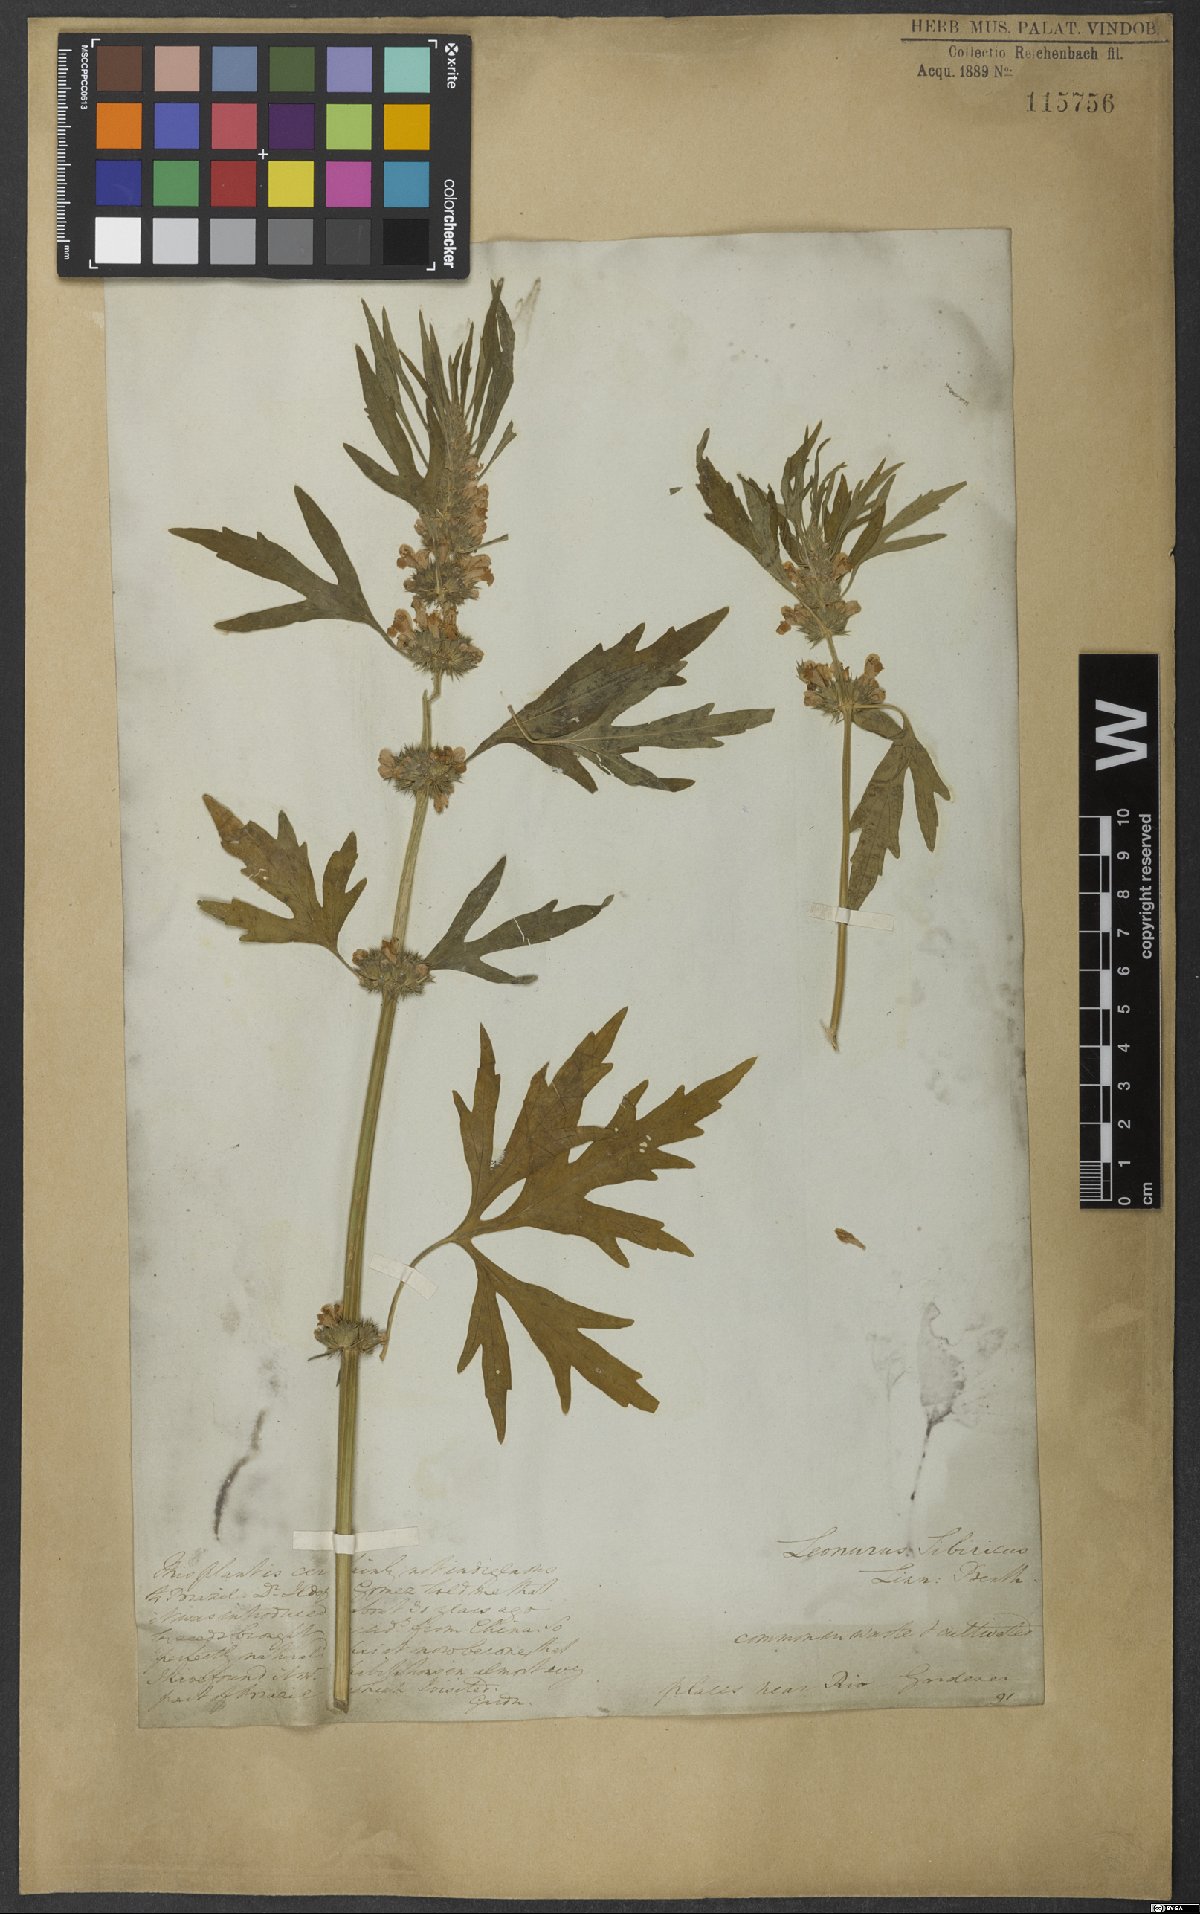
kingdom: Plantae
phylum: Tracheophyta
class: Magnoliopsida
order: Lamiales
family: Lamiaceae
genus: Leonurus
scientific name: Leonurus sibiricus
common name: Honeyweed
